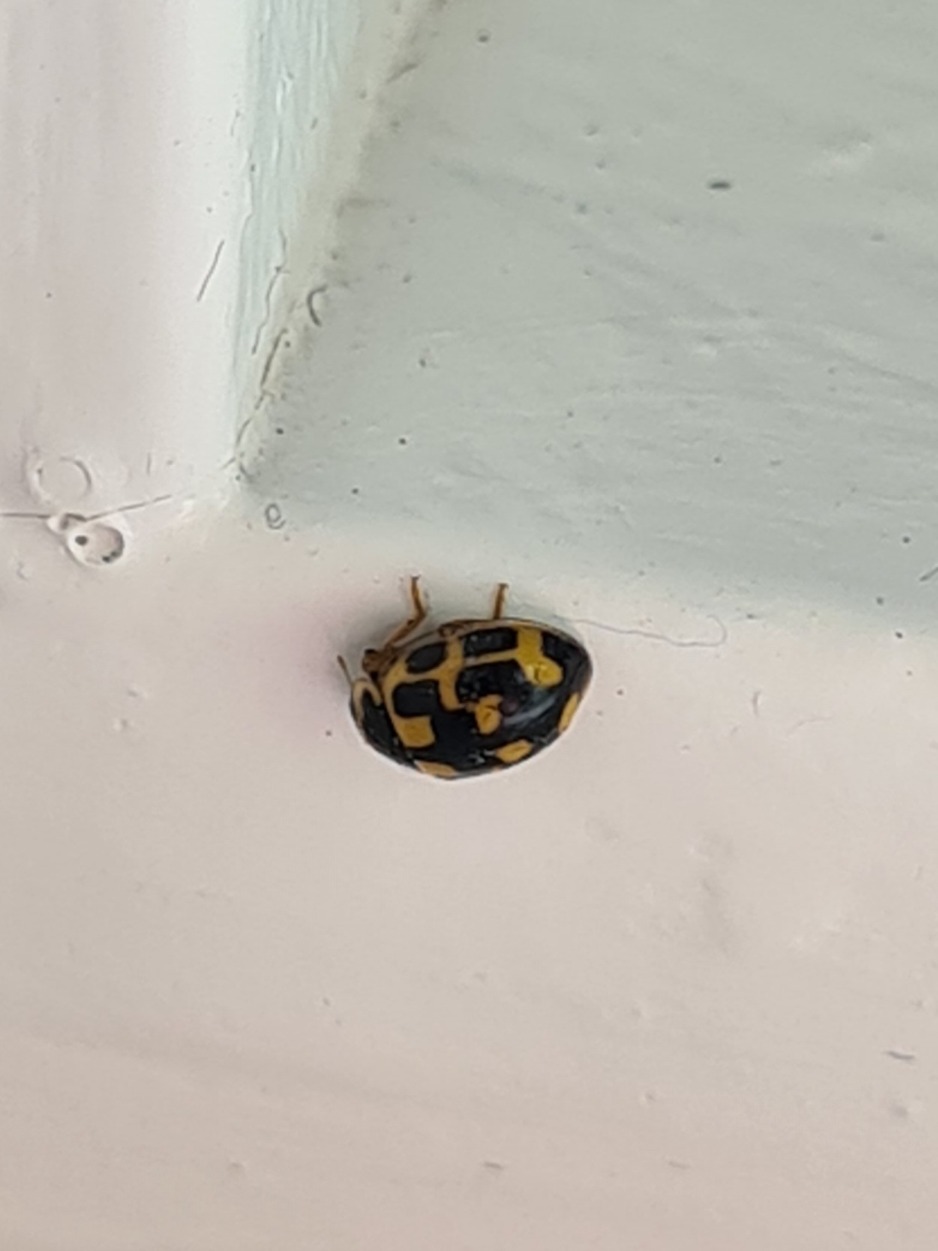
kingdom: Animalia
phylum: Arthropoda
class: Insecta
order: Coleoptera
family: Coccinellidae
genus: Propylaea
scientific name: Propylaea quatuordecimpunctata
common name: Skakbræt
